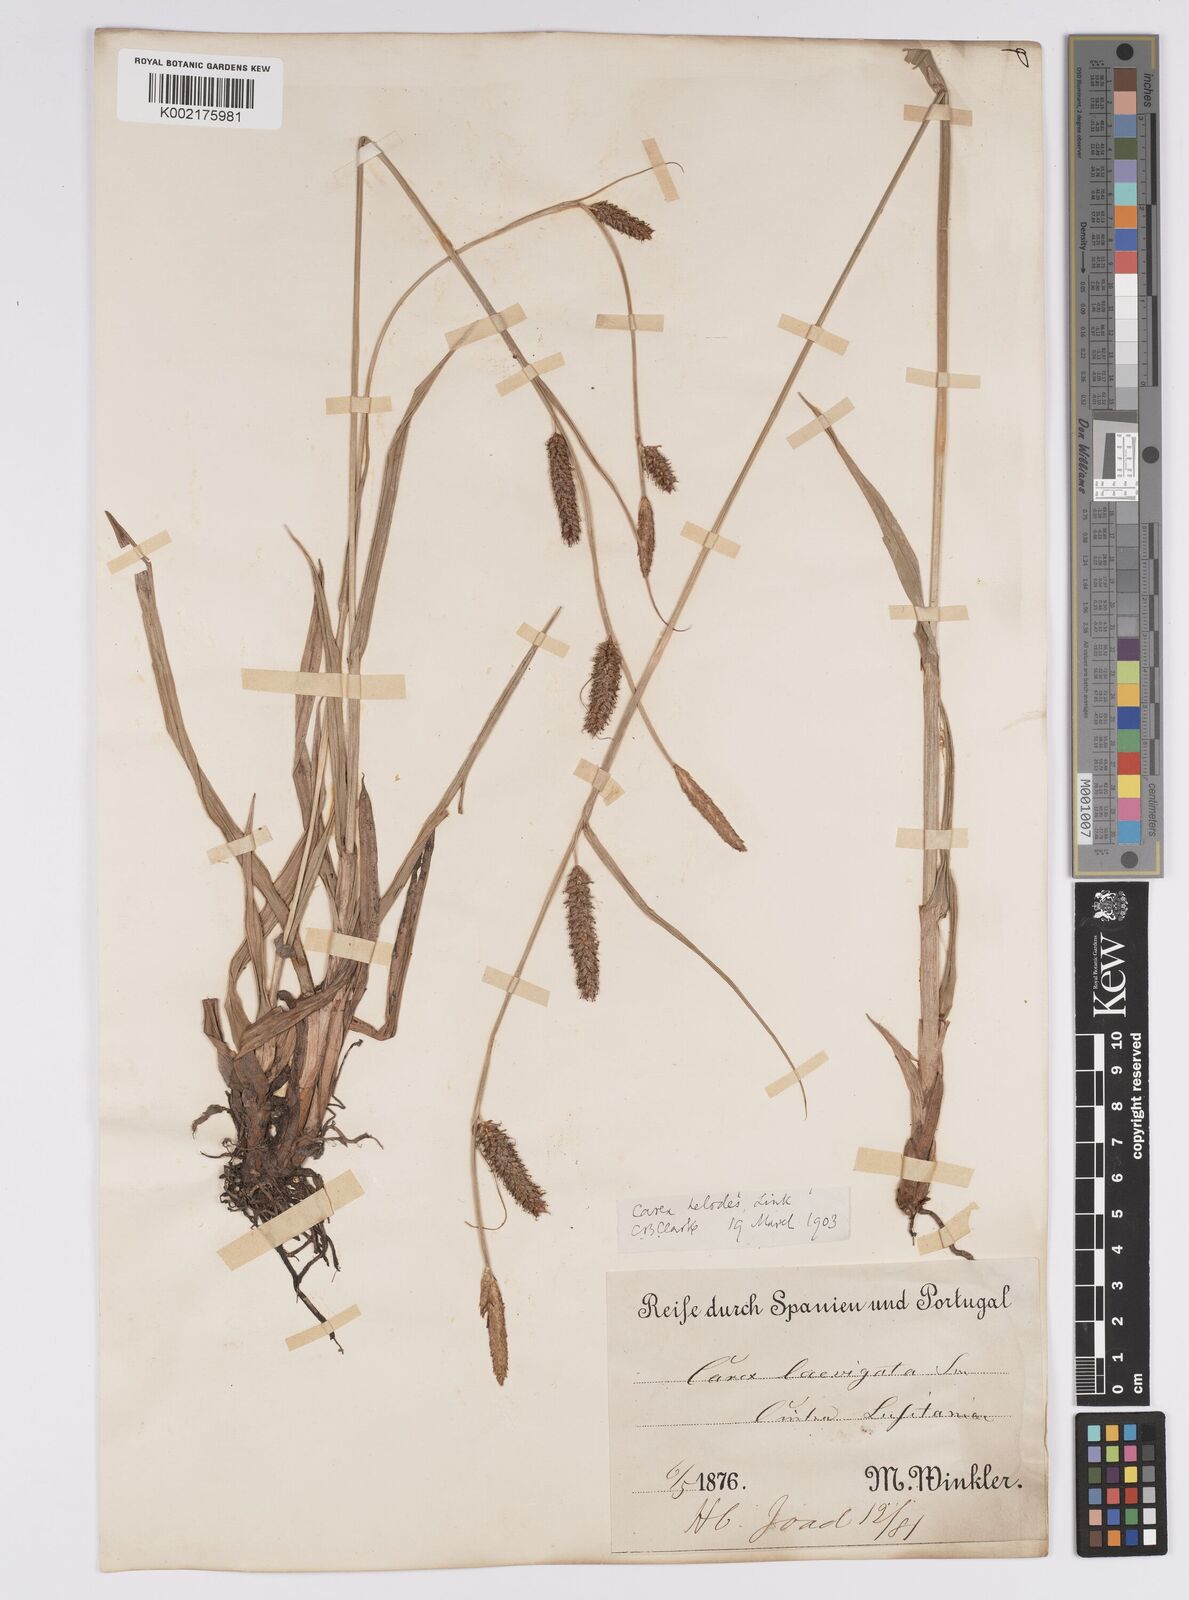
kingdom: Plantae
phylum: Tracheophyta
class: Liliopsida
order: Poales
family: Cyperaceae
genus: Carex
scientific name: Carex laevigata
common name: Smooth-stalked sedge
